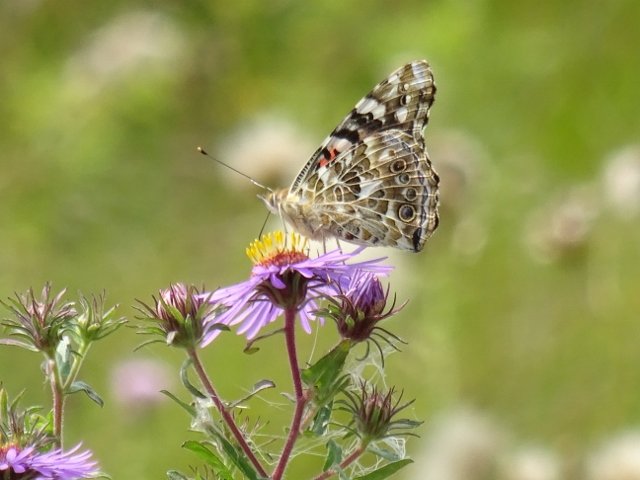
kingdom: Animalia
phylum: Arthropoda
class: Insecta
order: Lepidoptera
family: Nymphalidae
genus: Vanessa
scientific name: Vanessa cardui
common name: Painted Lady
